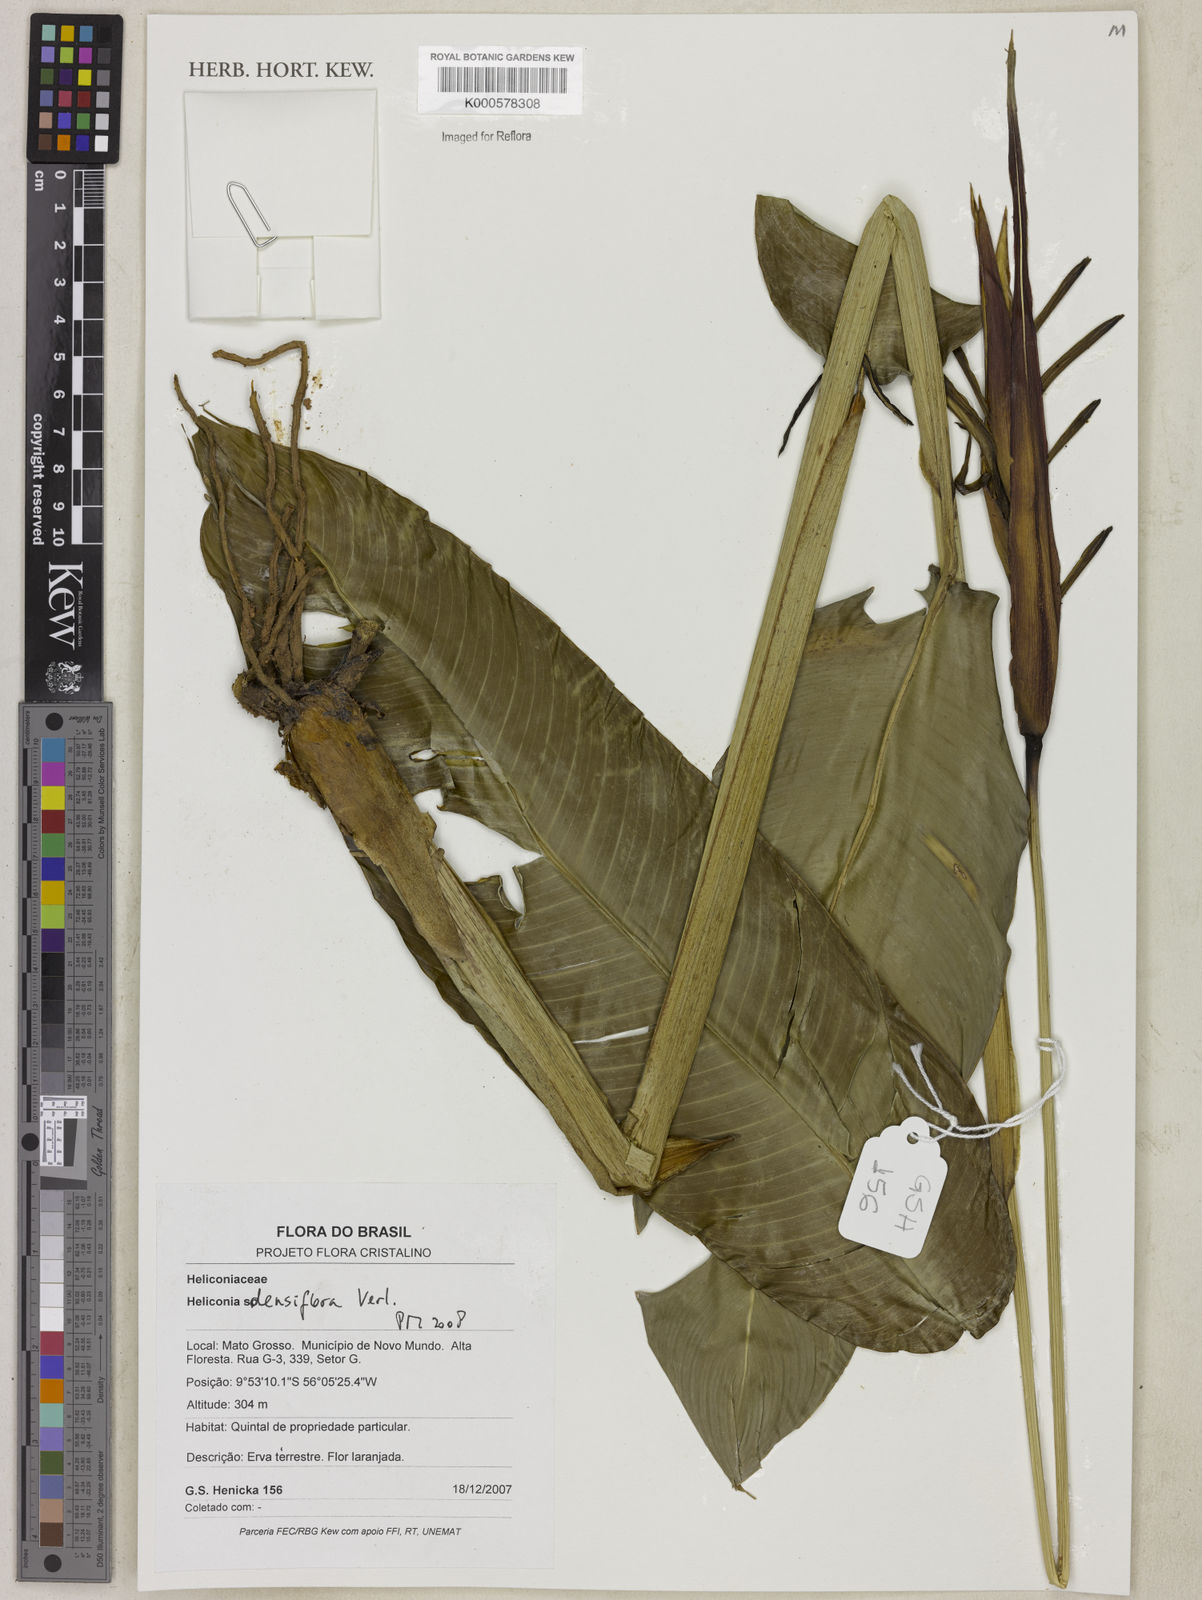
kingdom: Plantae
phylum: Tracheophyta
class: Liliopsida
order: Zingiberales
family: Heliconiaceae
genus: Heliconia
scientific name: Heliconia densiflora
